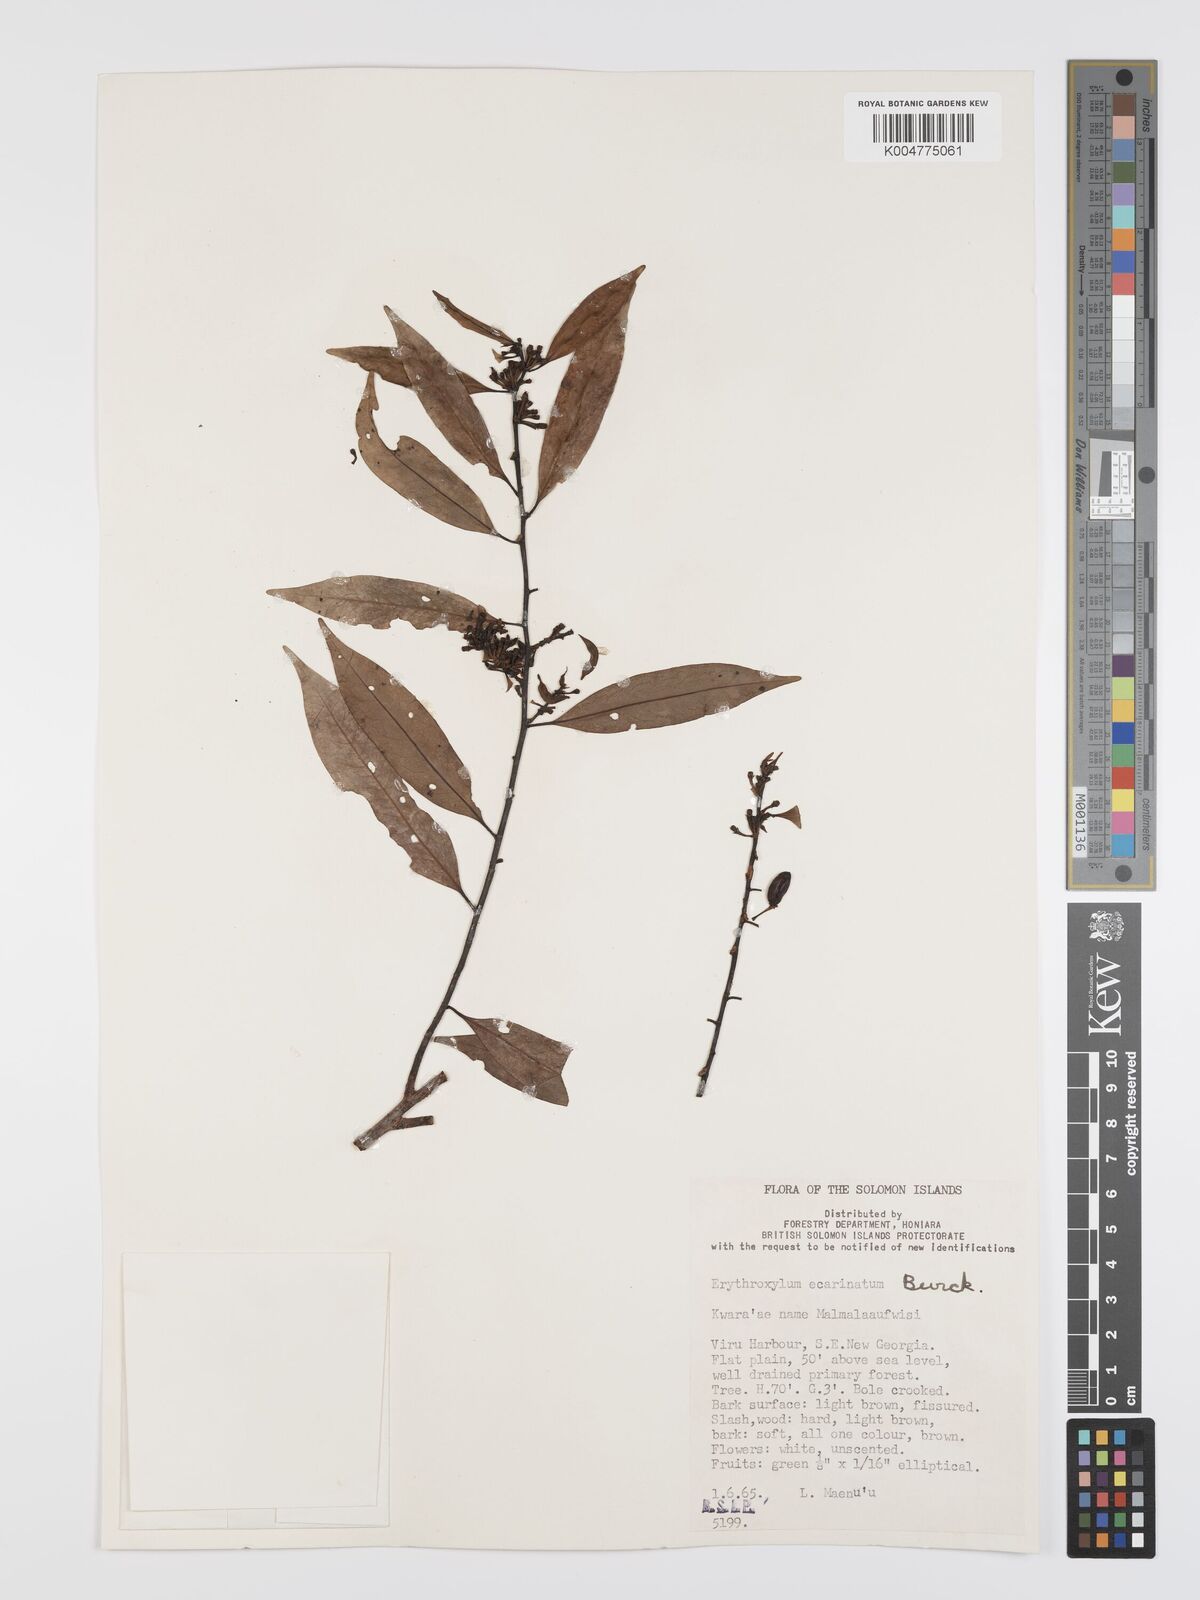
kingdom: Plantae
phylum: Tracheophyta
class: Magnoliopsida
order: Malpighiales
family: Erythroxylaceae
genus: Erythroxylum
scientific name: Erythroxylum ecarinatum
